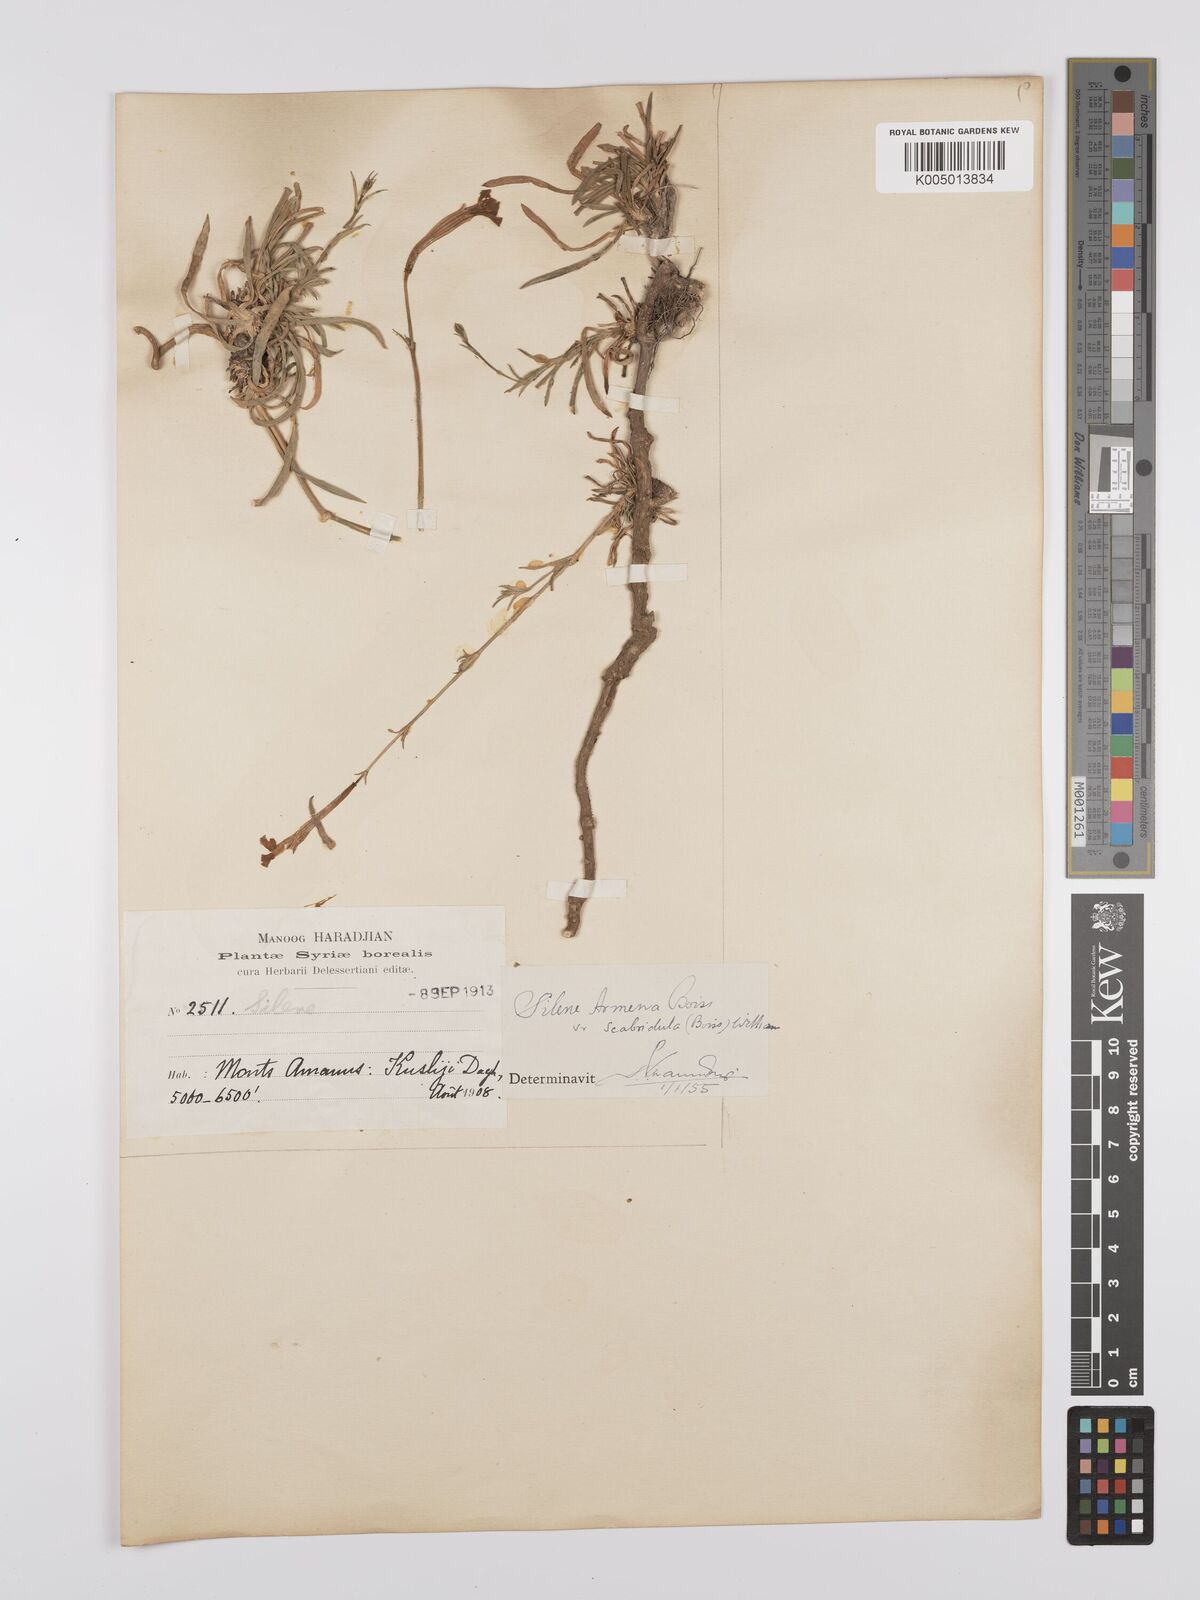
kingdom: Plantae
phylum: Tracheophyta
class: Magnoliopsida
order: Caryophyllales
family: Caryophyllaceae
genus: Silene
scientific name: Silene armena
